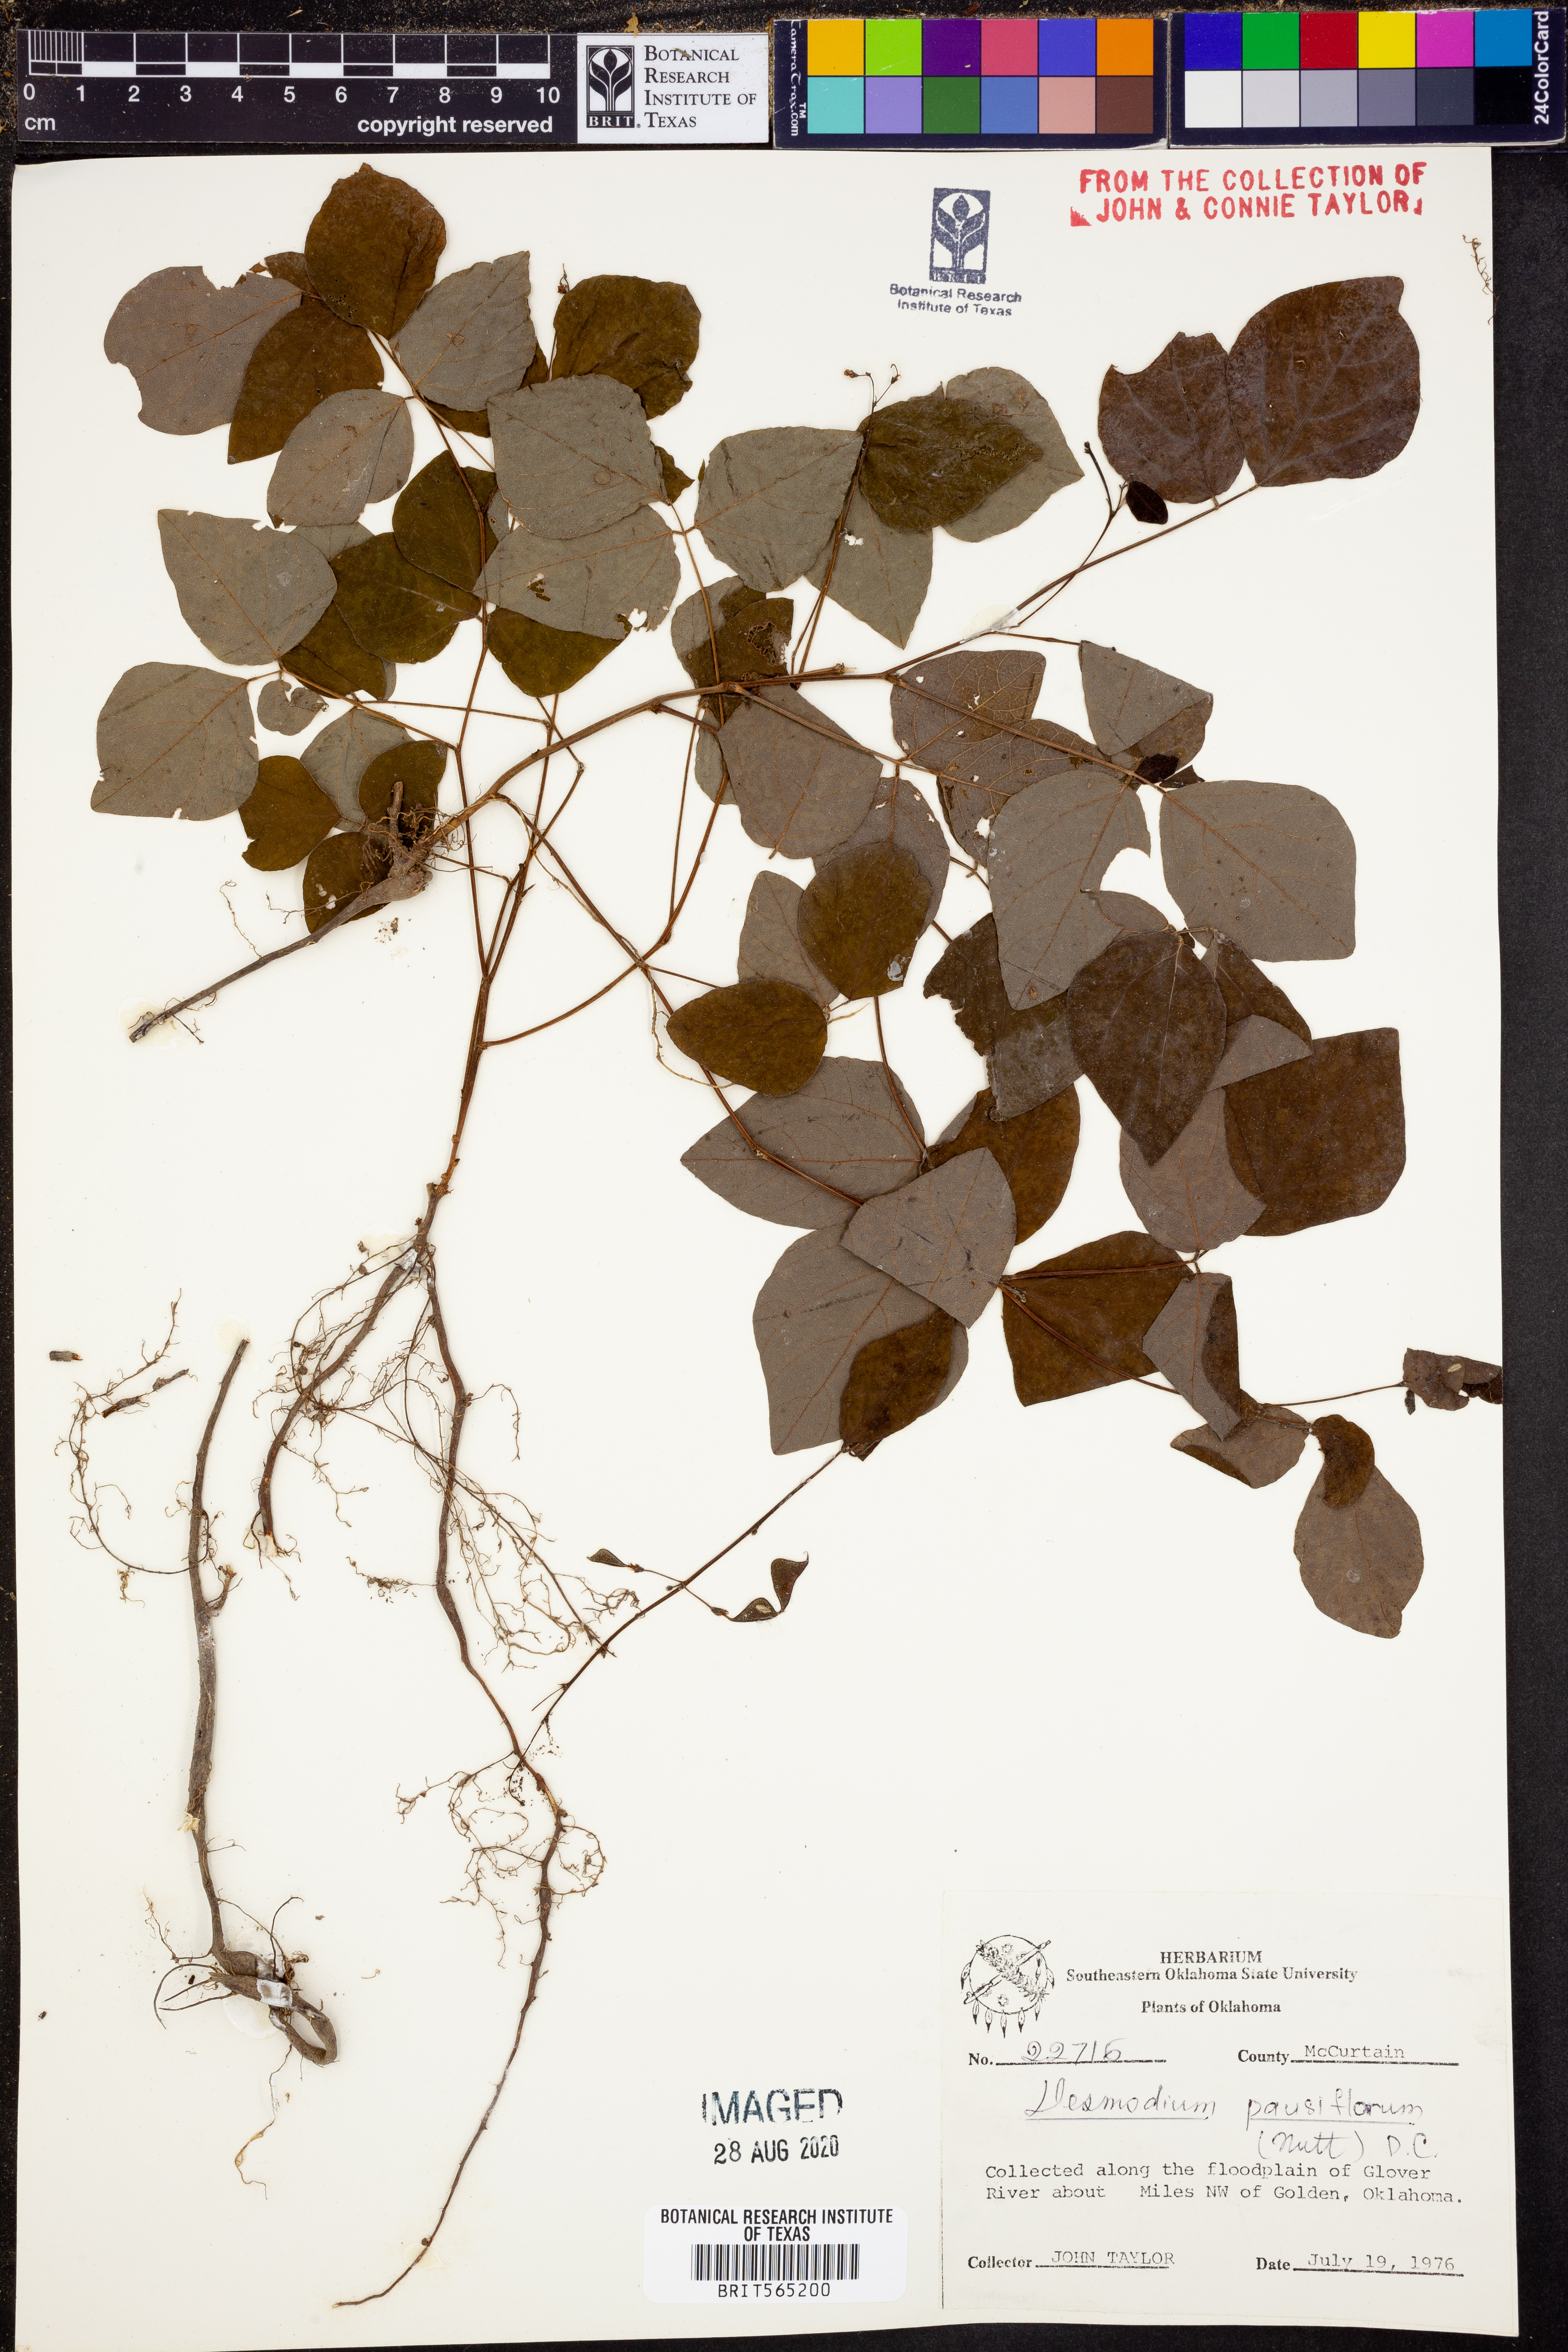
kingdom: Plantae
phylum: Tracheophyta
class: Magnoliopsida
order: Fabales
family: Fabaceae
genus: Hylodesmum
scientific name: Hylodesmum pauciflorum
